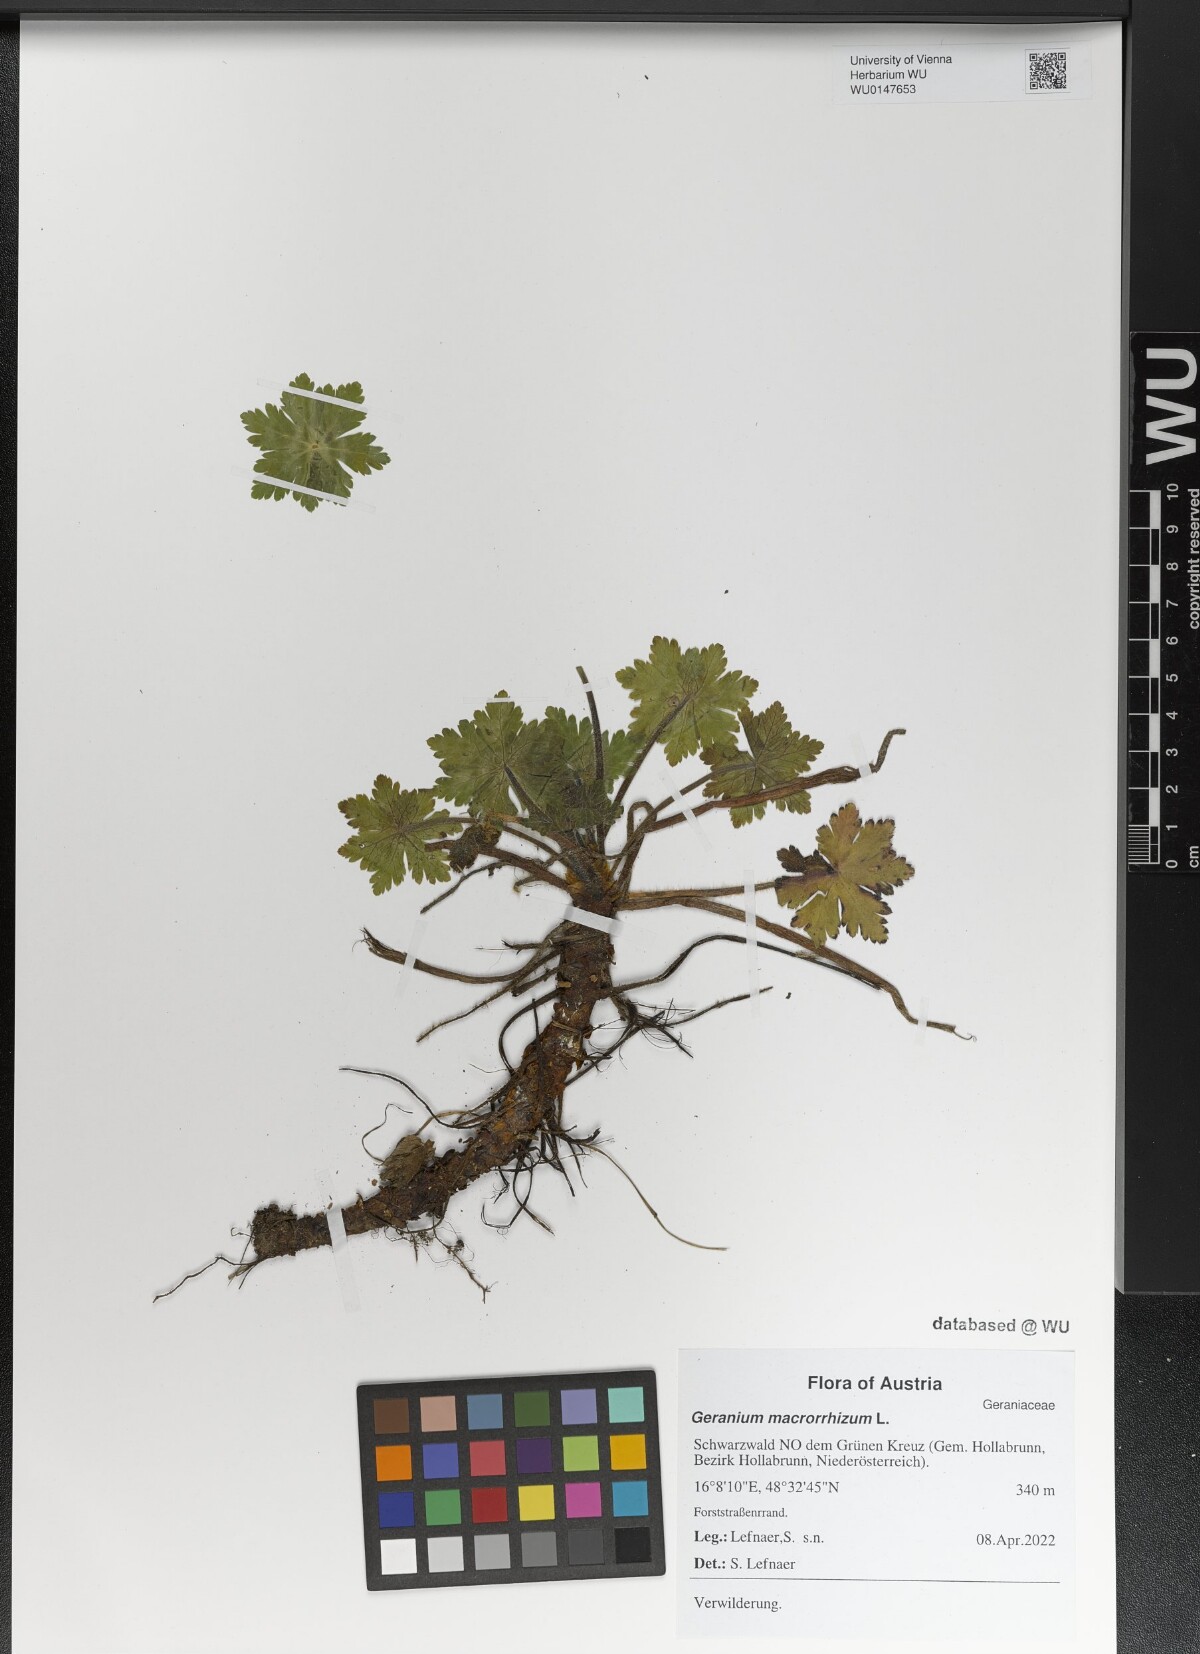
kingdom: Plantae
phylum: Tracheophyta
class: Magnoliopsida
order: Geraniales
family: Geraniaceae
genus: Geranium
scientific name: Geranium macrorrhizum
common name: Rock crane's-bill
